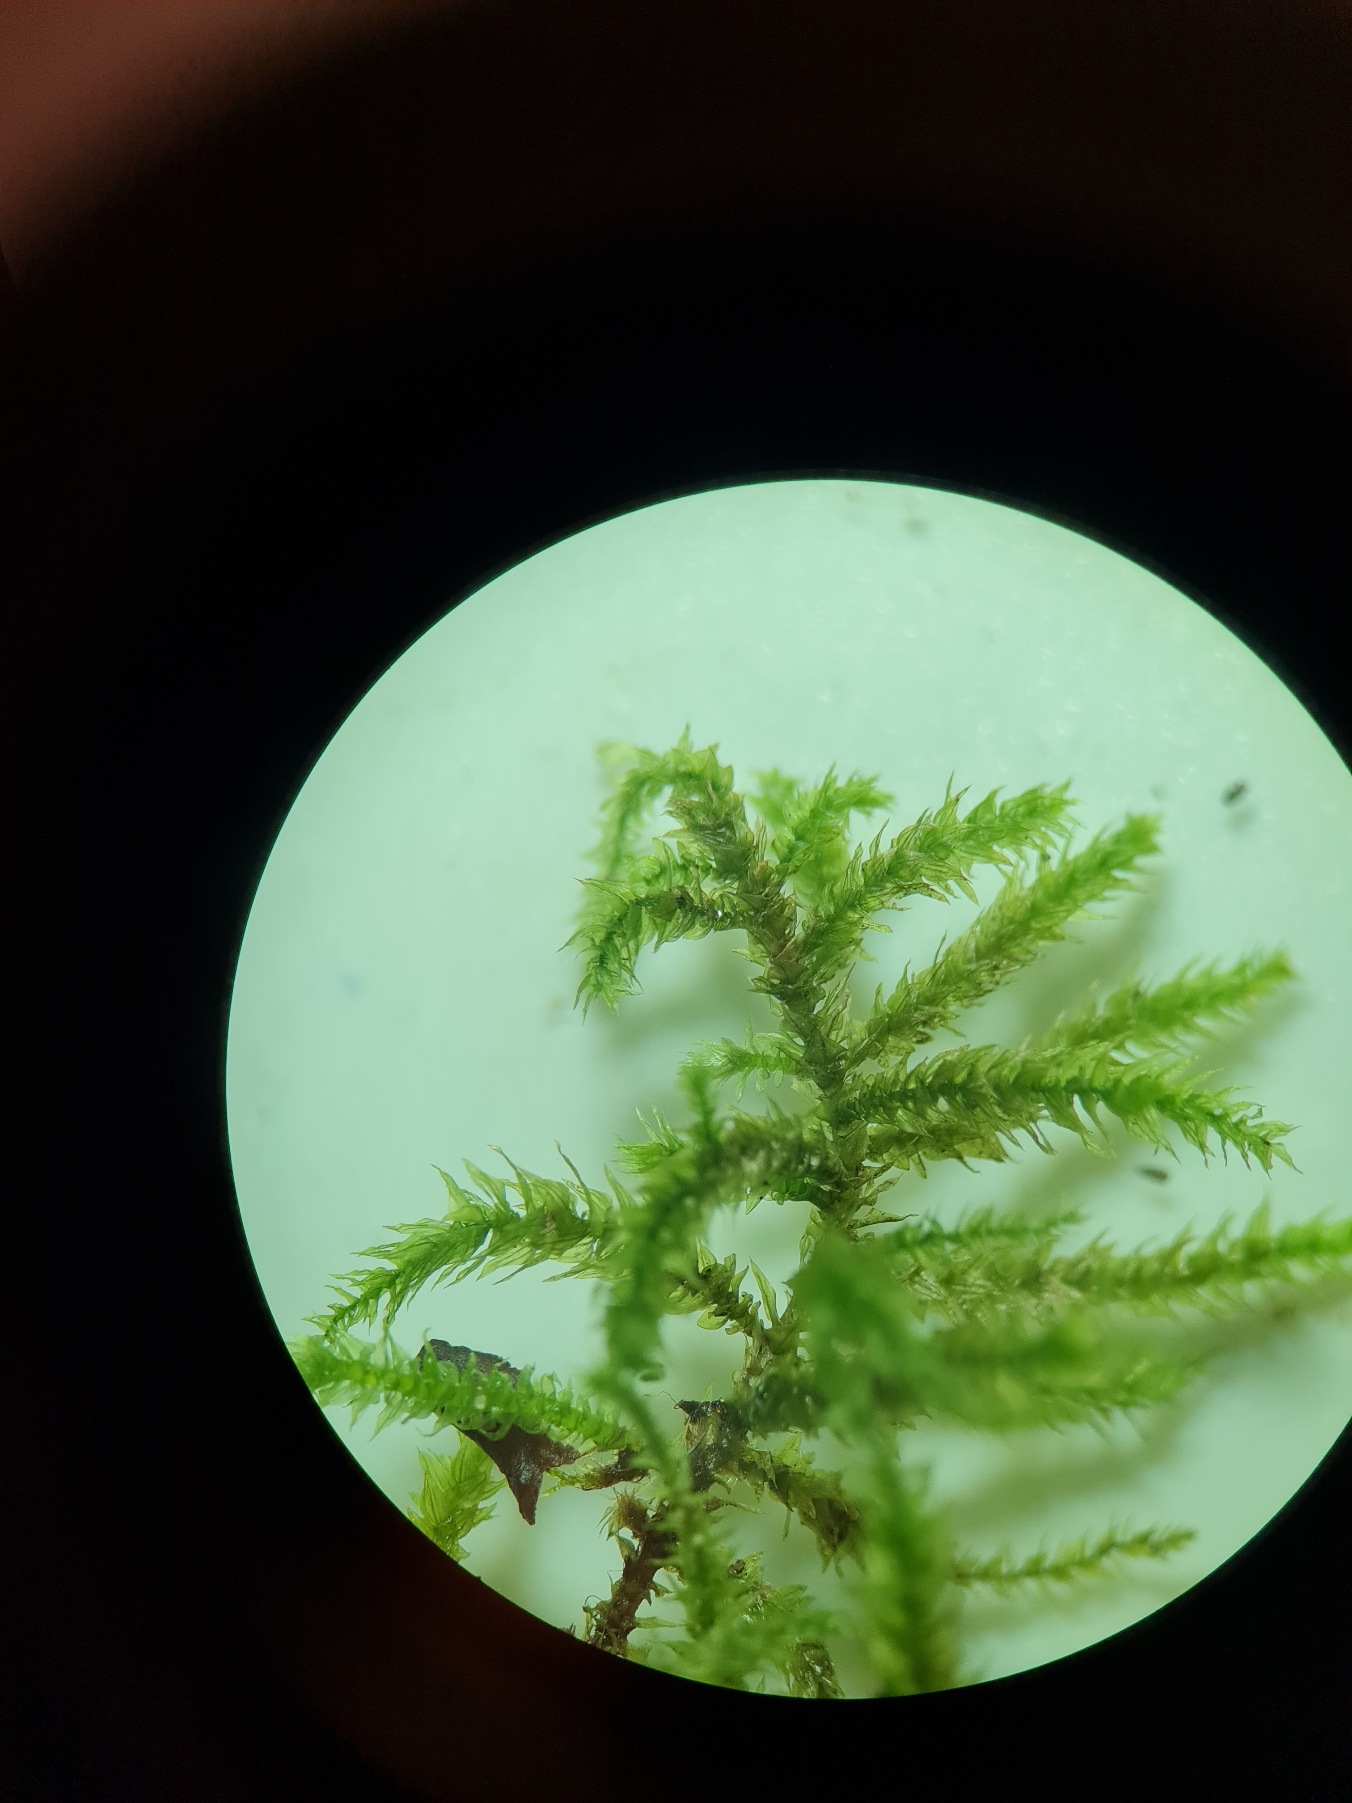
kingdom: Plantae
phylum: Bryophyta
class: Bryopsida
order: Hypnales
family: Brachytheciaceae
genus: Eurhynchium
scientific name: Eurhynchium striatum
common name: Stribet næbmos
